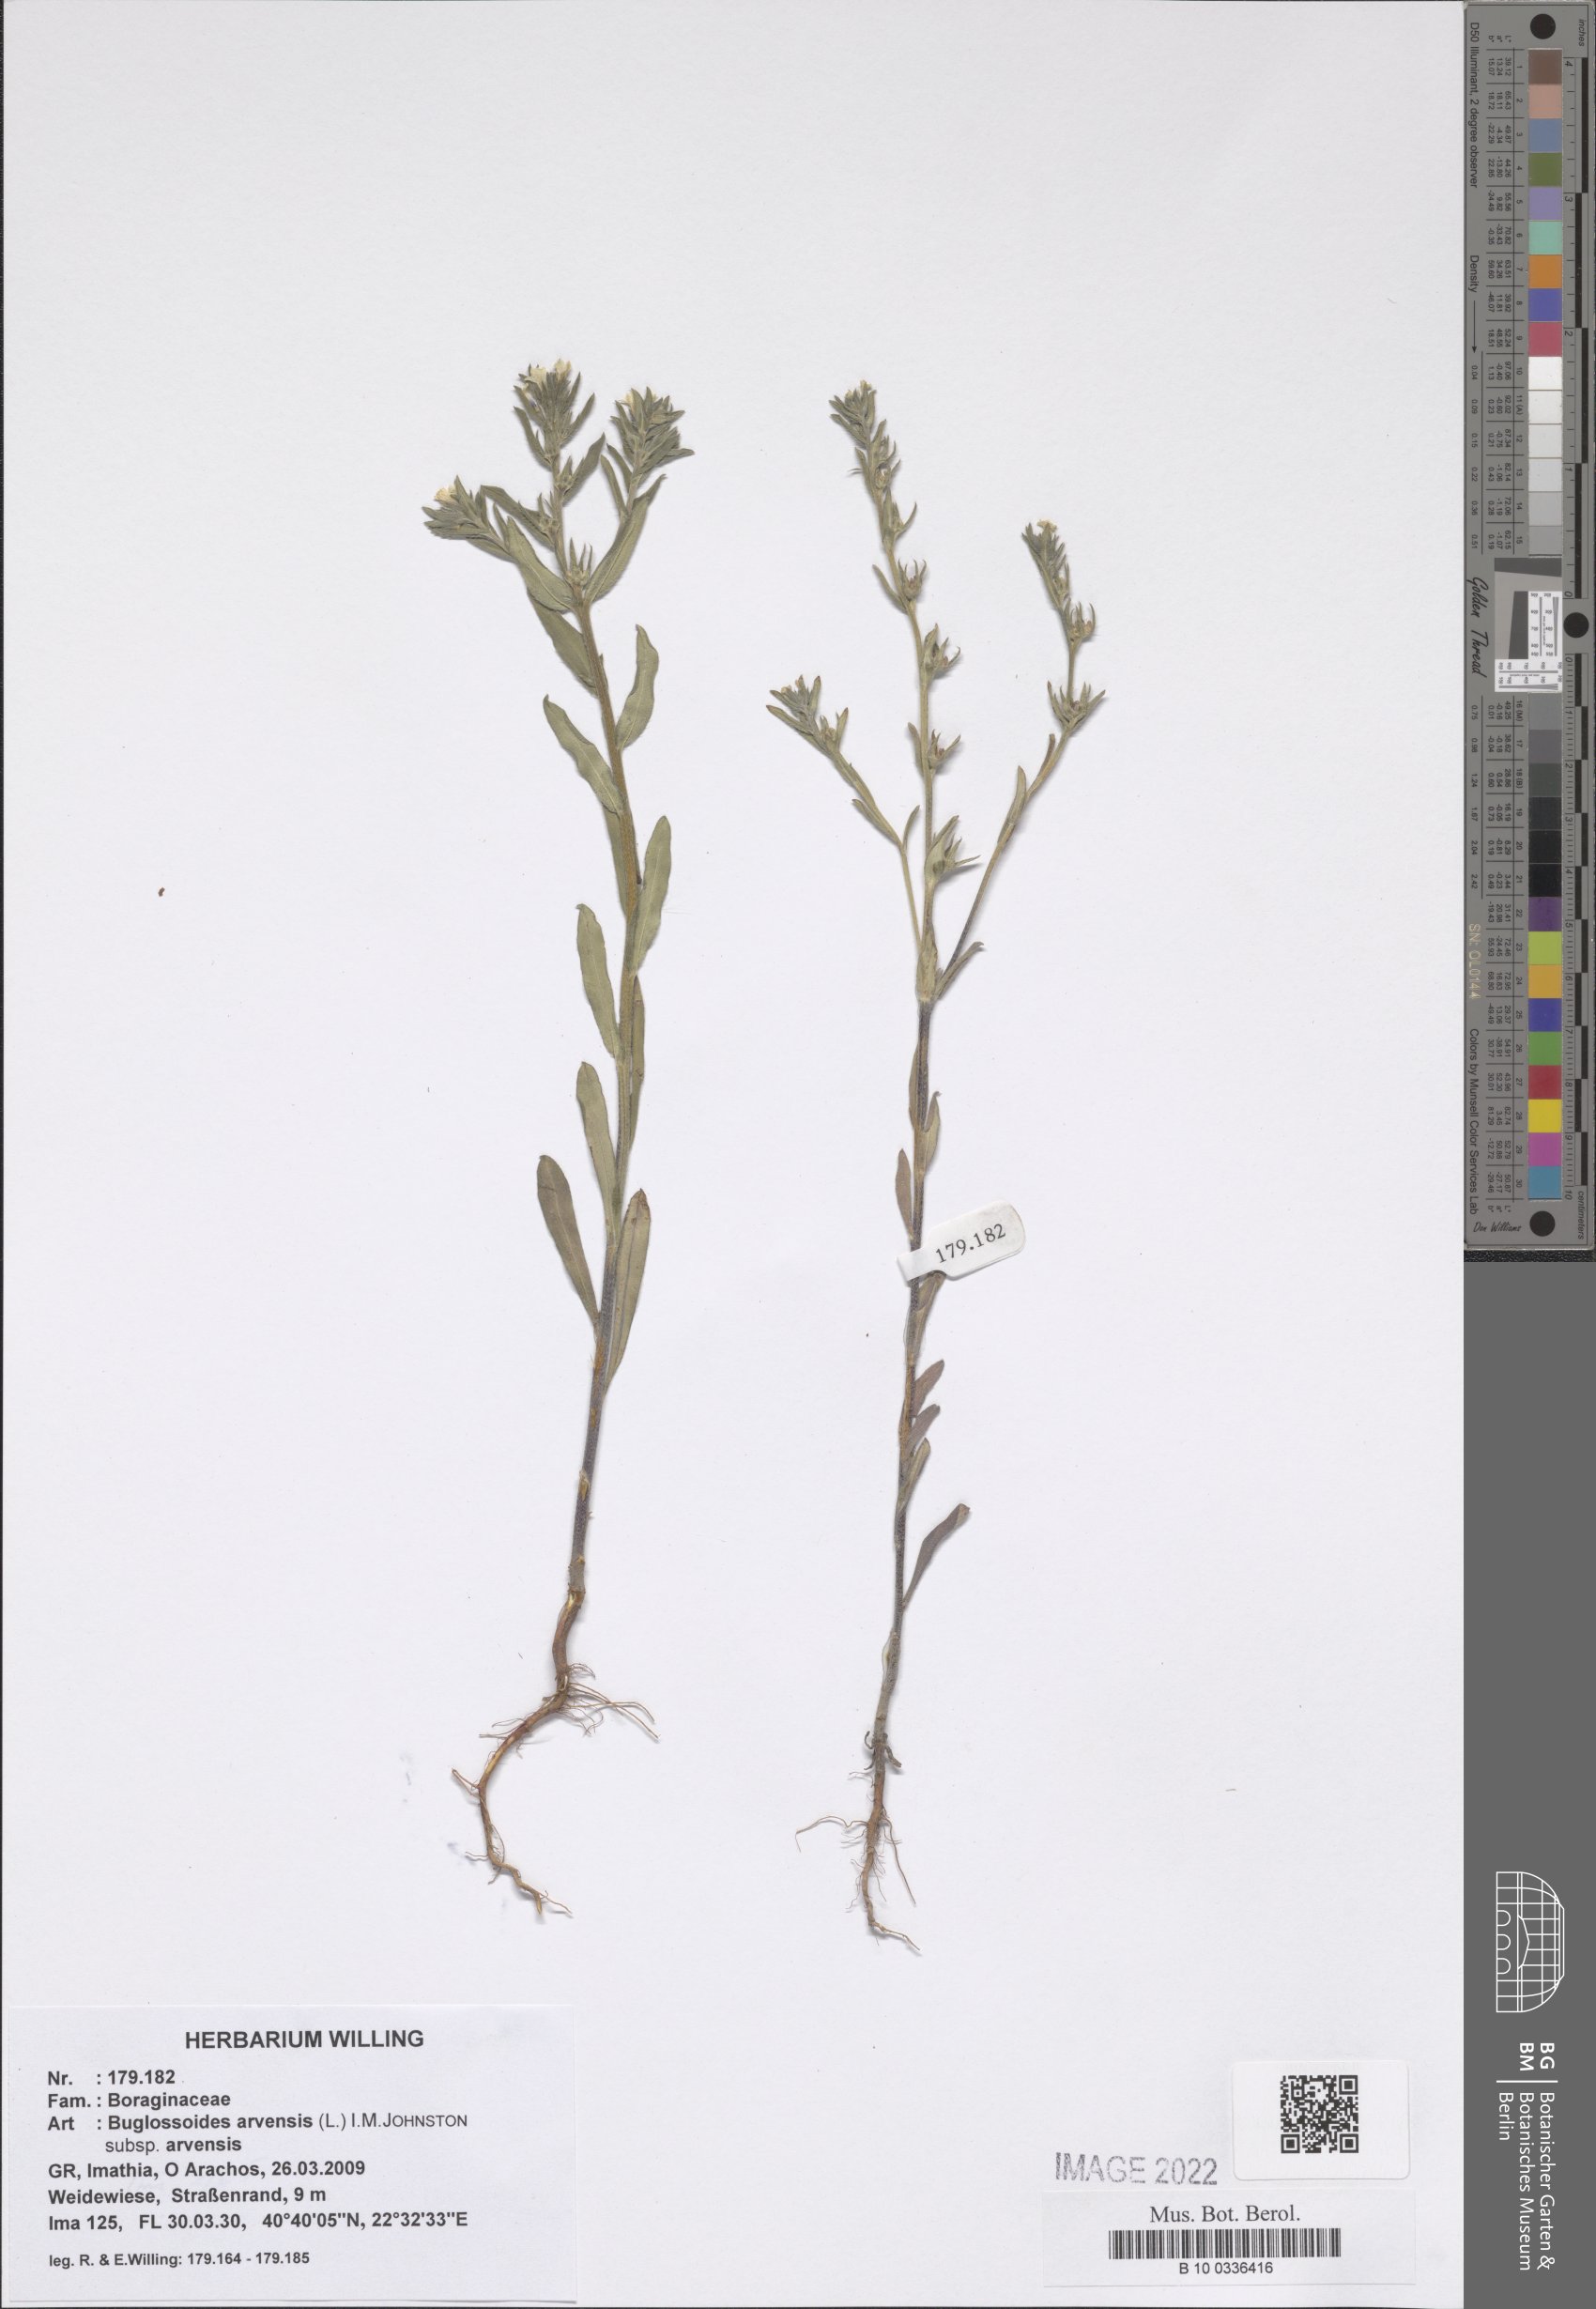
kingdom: Plantae
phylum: Tracheophyta
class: Magnoliopsida
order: Boraginales
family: Boraginaceae
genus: Buglossoides
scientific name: Buglossoides arvensis
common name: Corn gromwell
